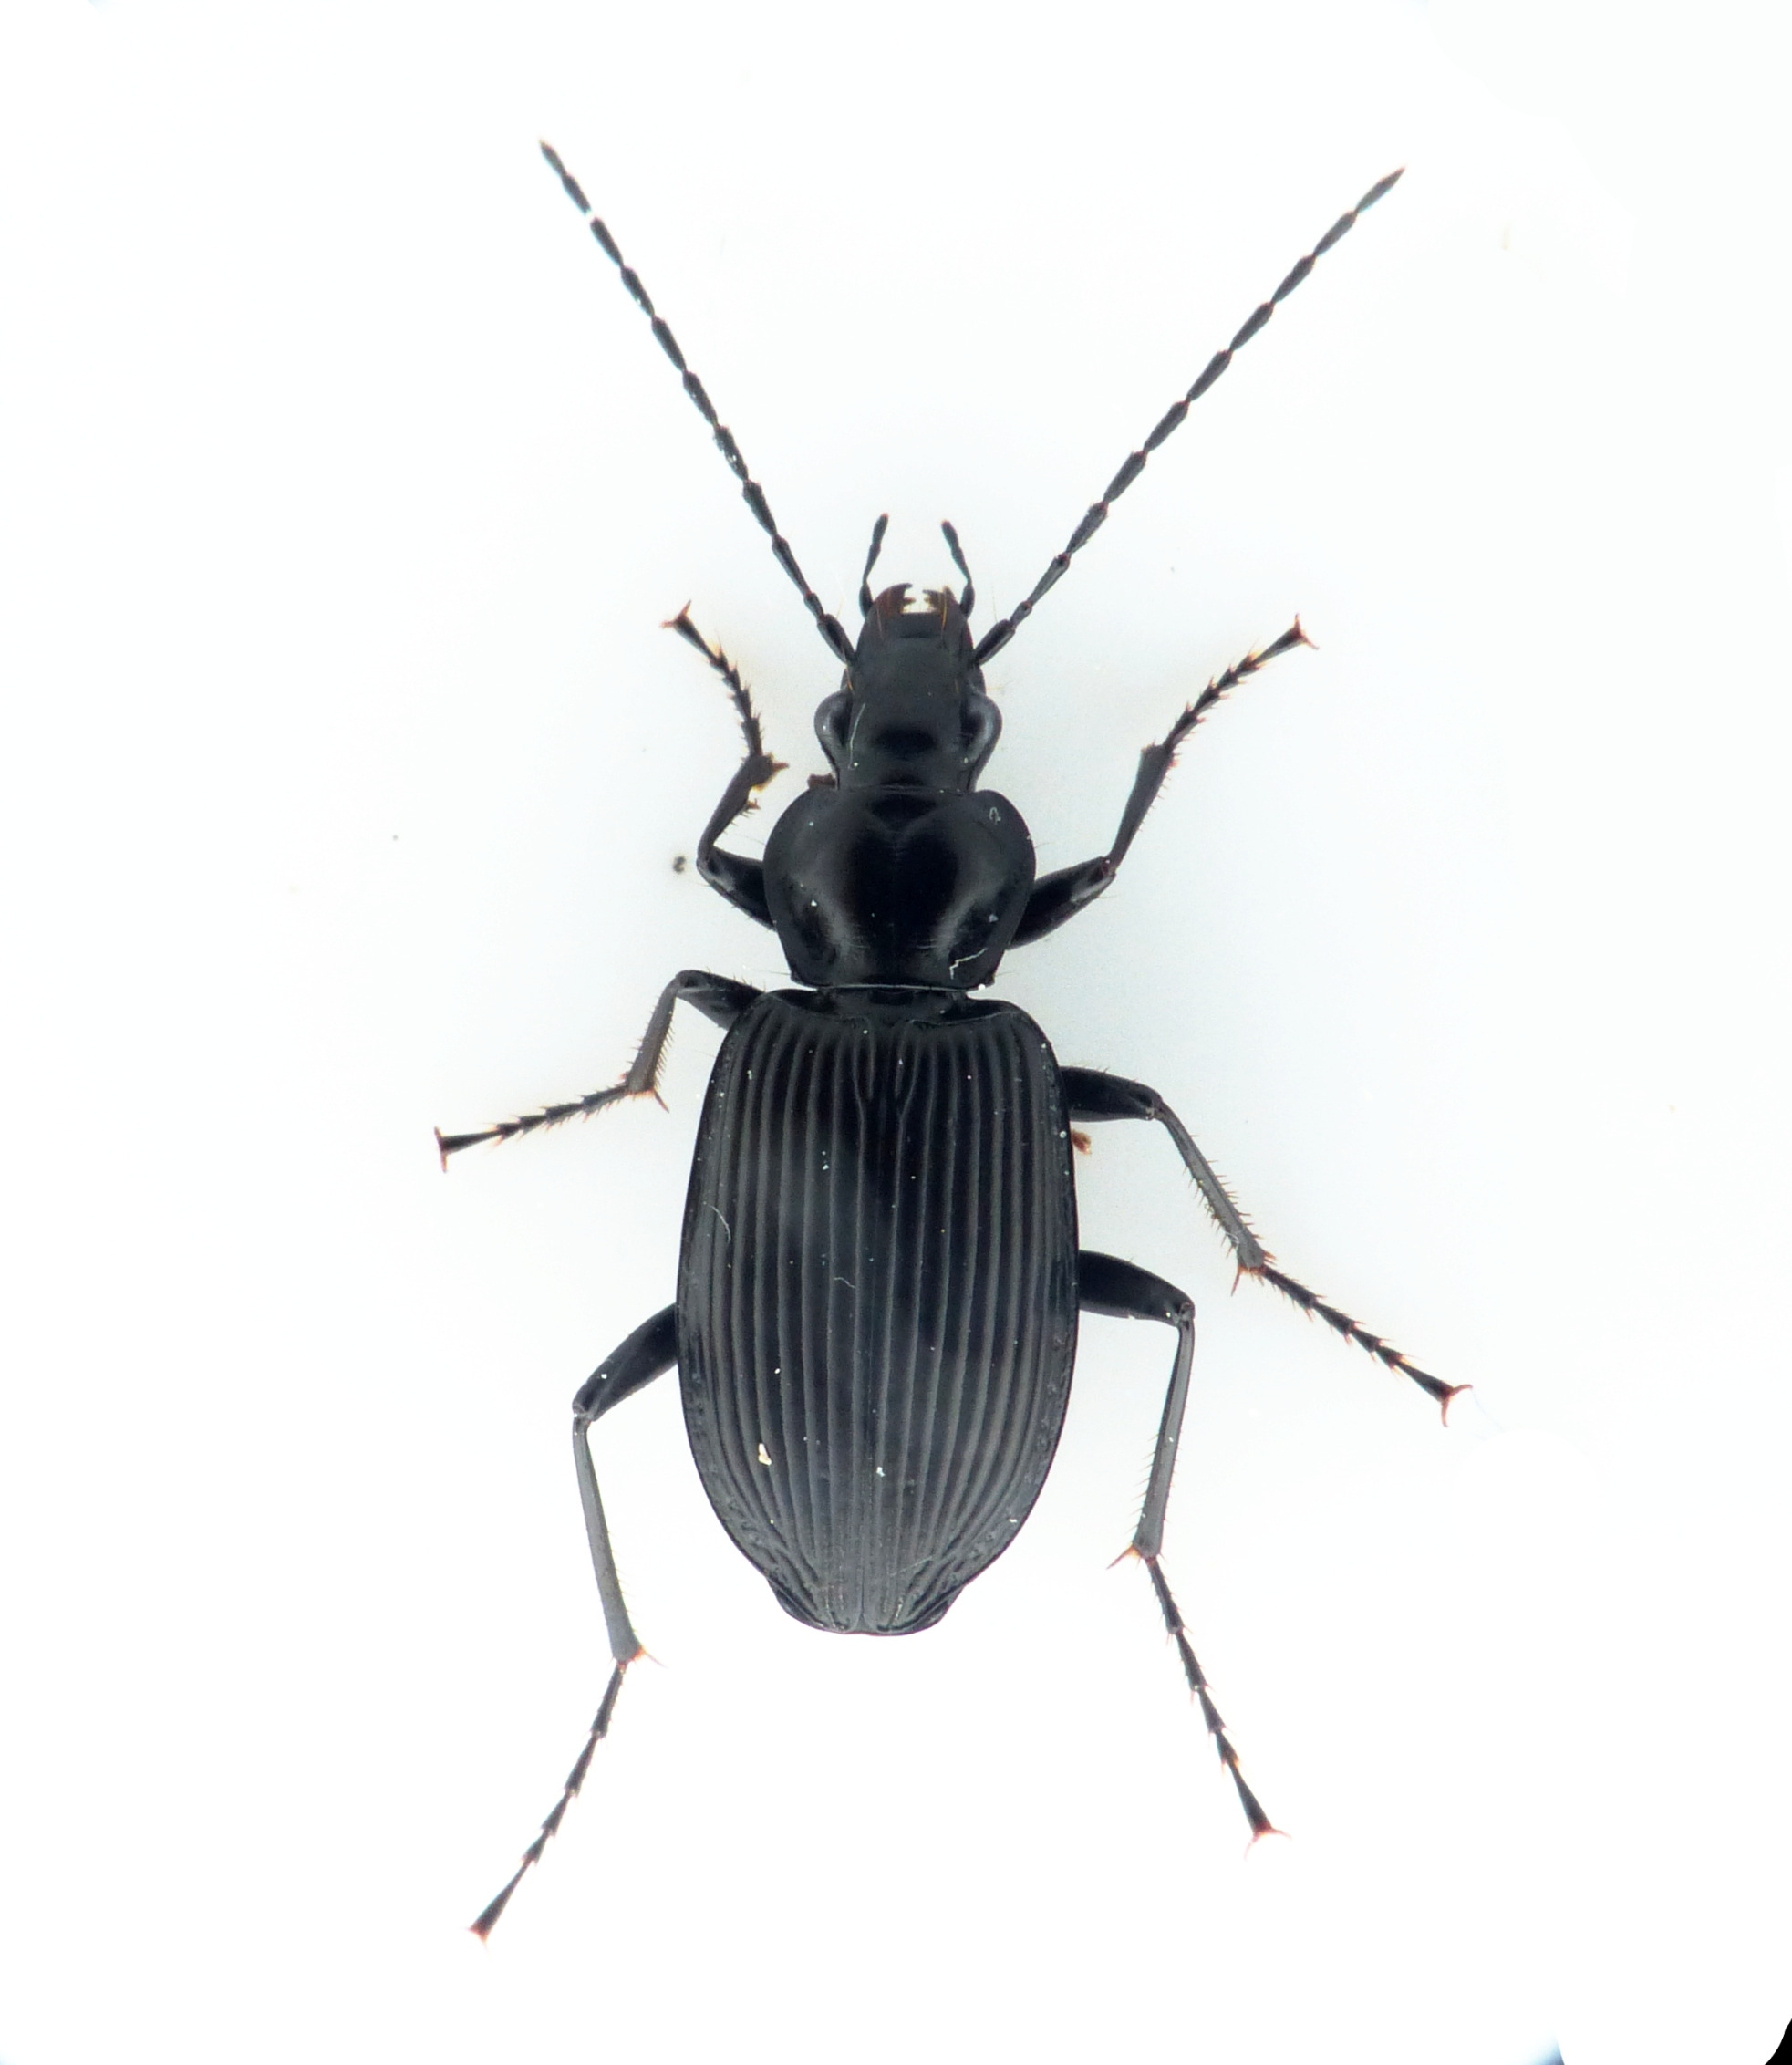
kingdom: Animalia
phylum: Arthropoda
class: Insecta
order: Coleoptera
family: Carabidae
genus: Platynus
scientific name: Platynus krynickii
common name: Skovmosekvikløber
